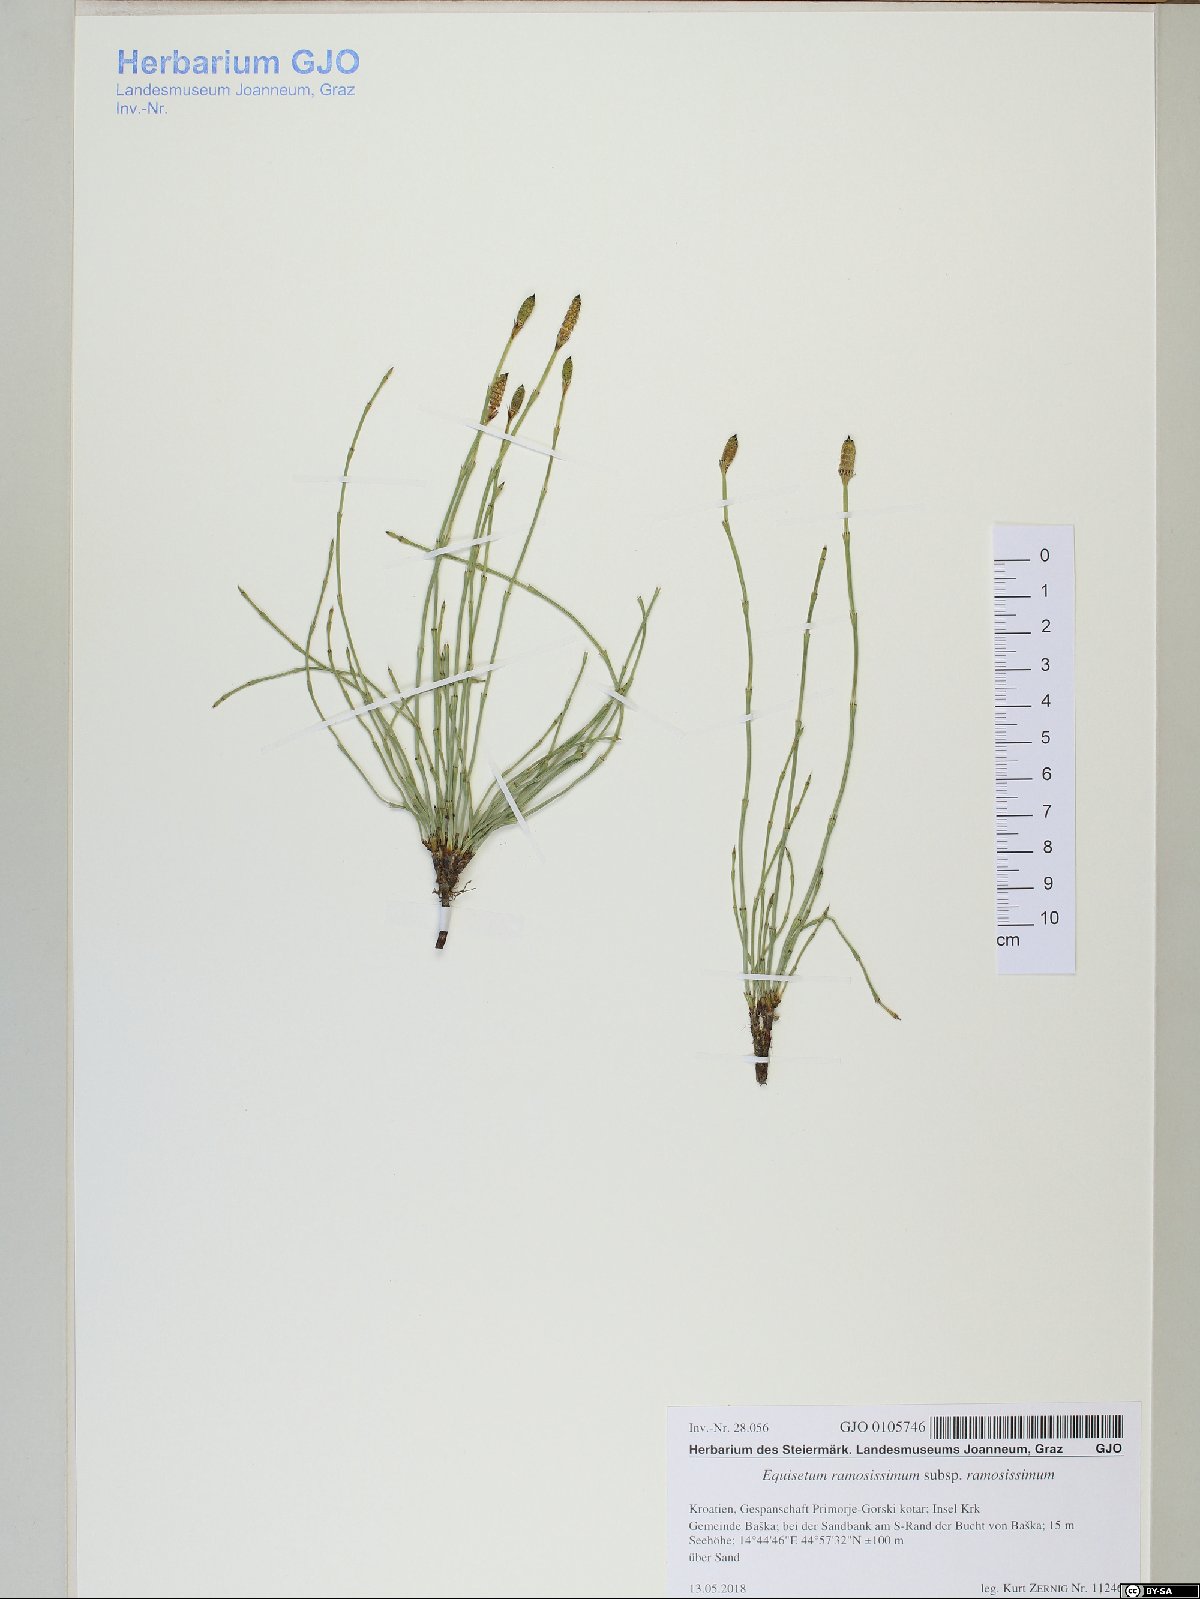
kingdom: Plantae
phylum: Tracheophyta
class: Polypodiopsida
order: Equisetales
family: Equisetaceae
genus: Equisetum
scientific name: Equisetum ramosissimum
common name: Branched horsetail
